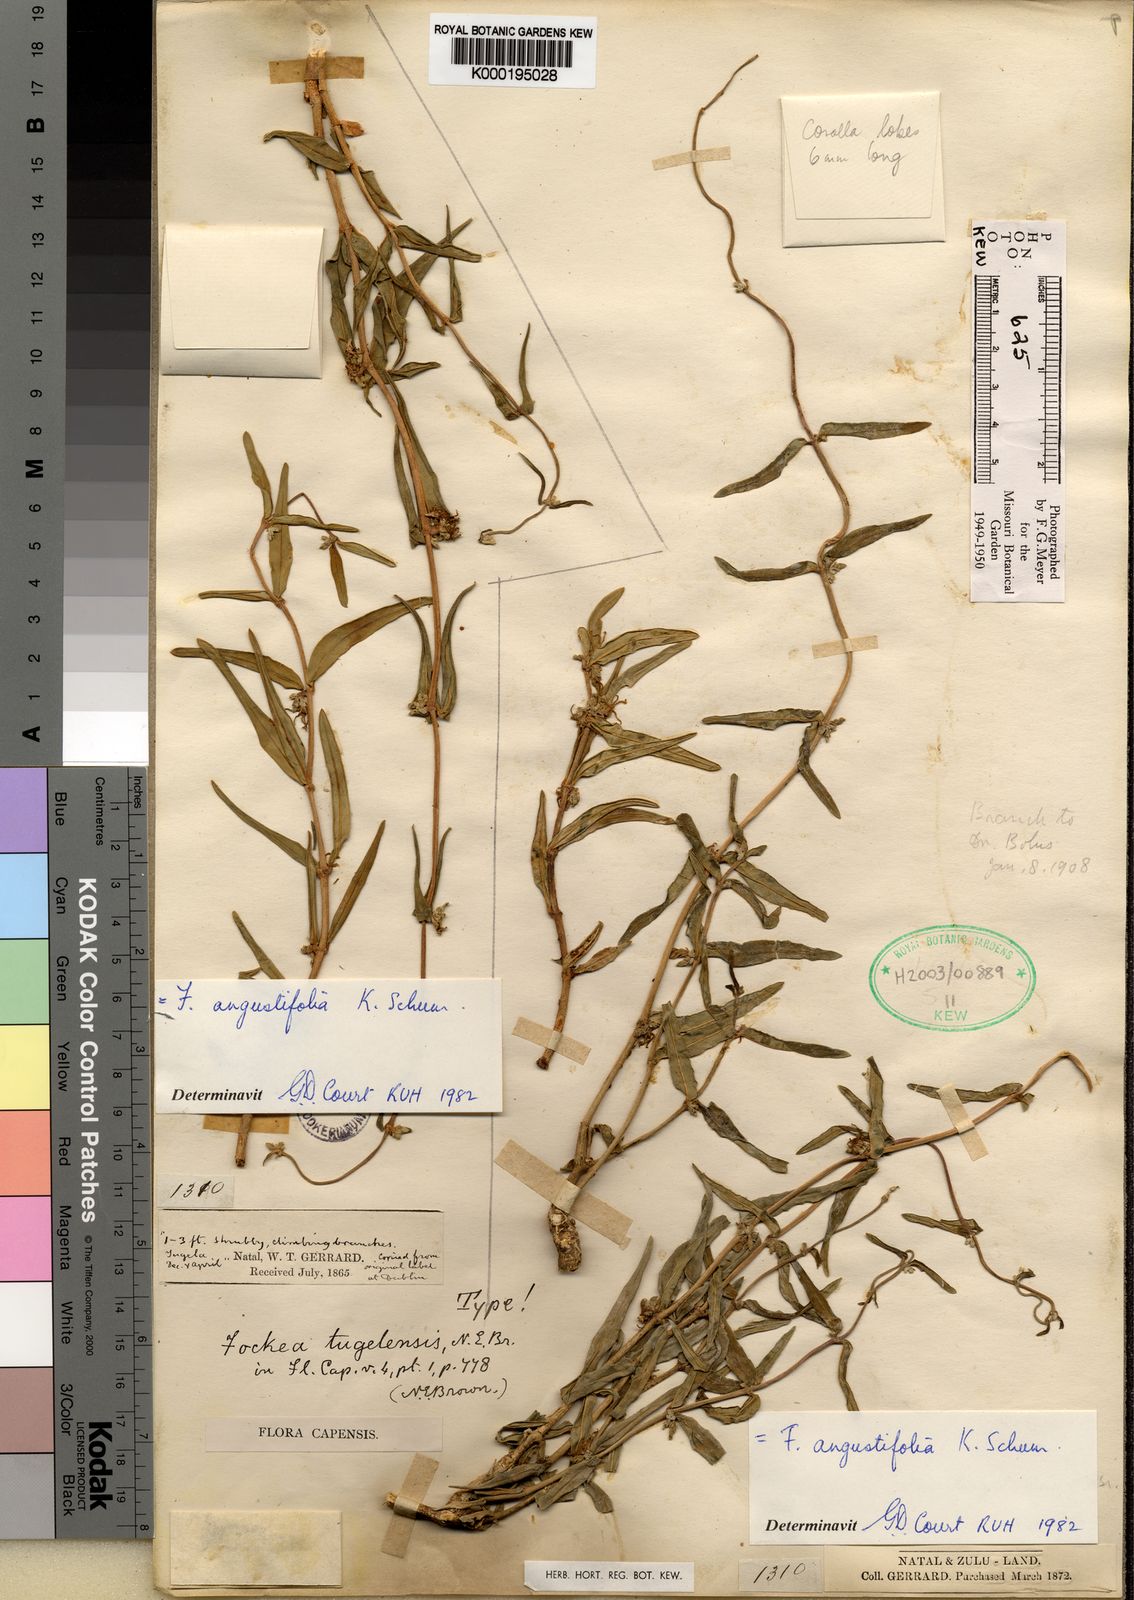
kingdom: Plantae
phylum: Tracheophyta
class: Magnoliopsida
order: Gentianales
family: Apocynaceae
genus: Fockea
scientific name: Fockea angustifolia
